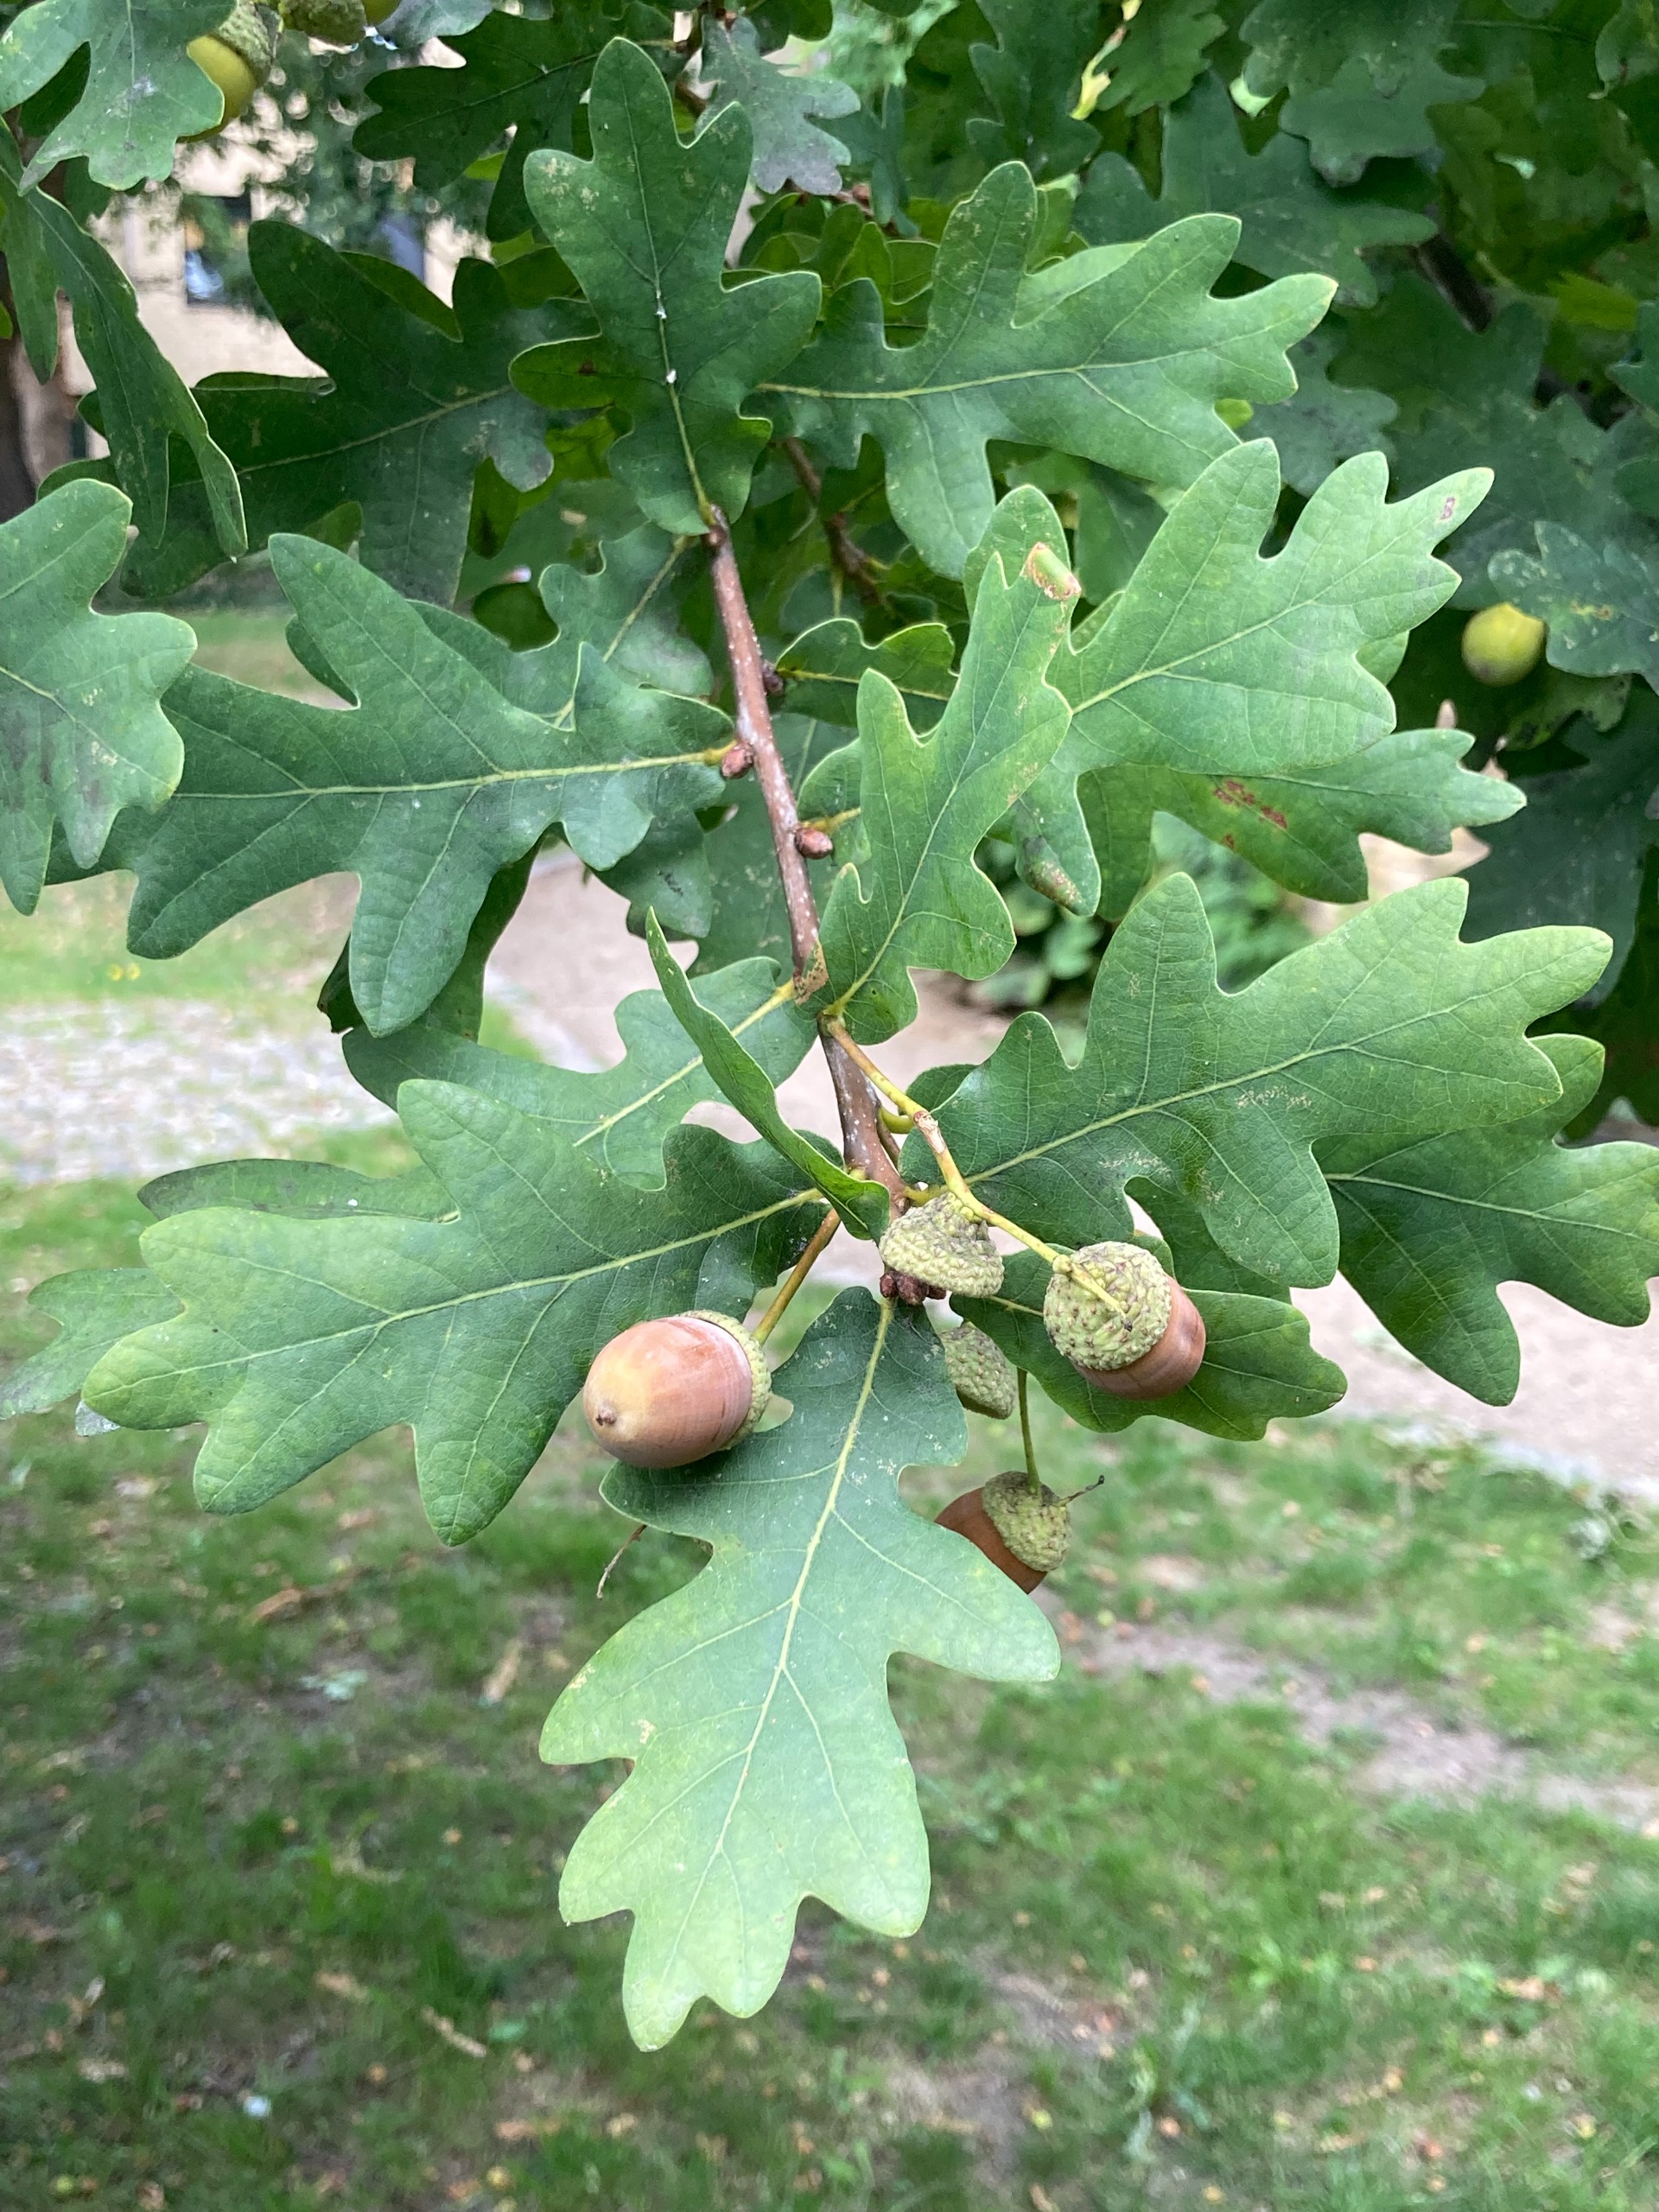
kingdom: Plantae
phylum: Tracheophyta
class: Magnoliopsida
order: Fagales
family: Fagaceae
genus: Quercus
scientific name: Quercus robur
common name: Stilk-eg/almindelig eg
